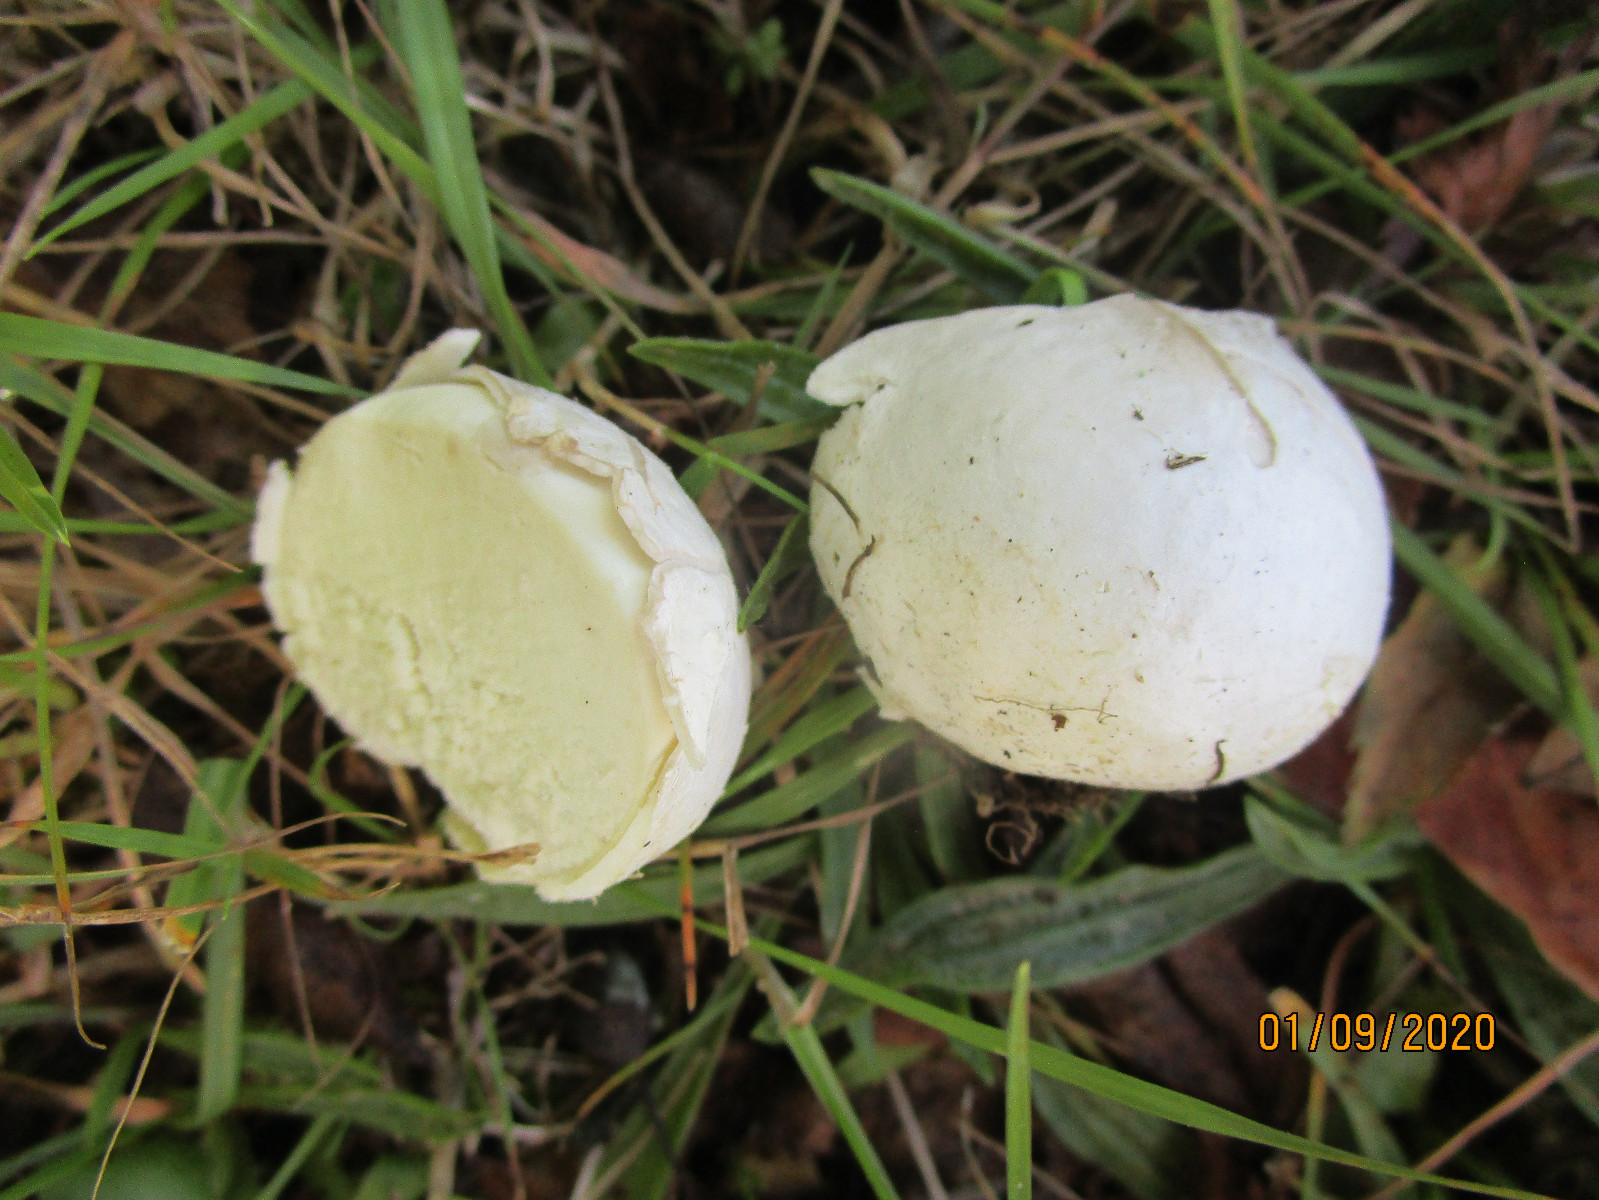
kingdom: Fungi
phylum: Basidiomycota
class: Agaricomycetes
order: Agaricales
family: Lycoperdaceae
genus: Bovista
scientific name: Bovista
